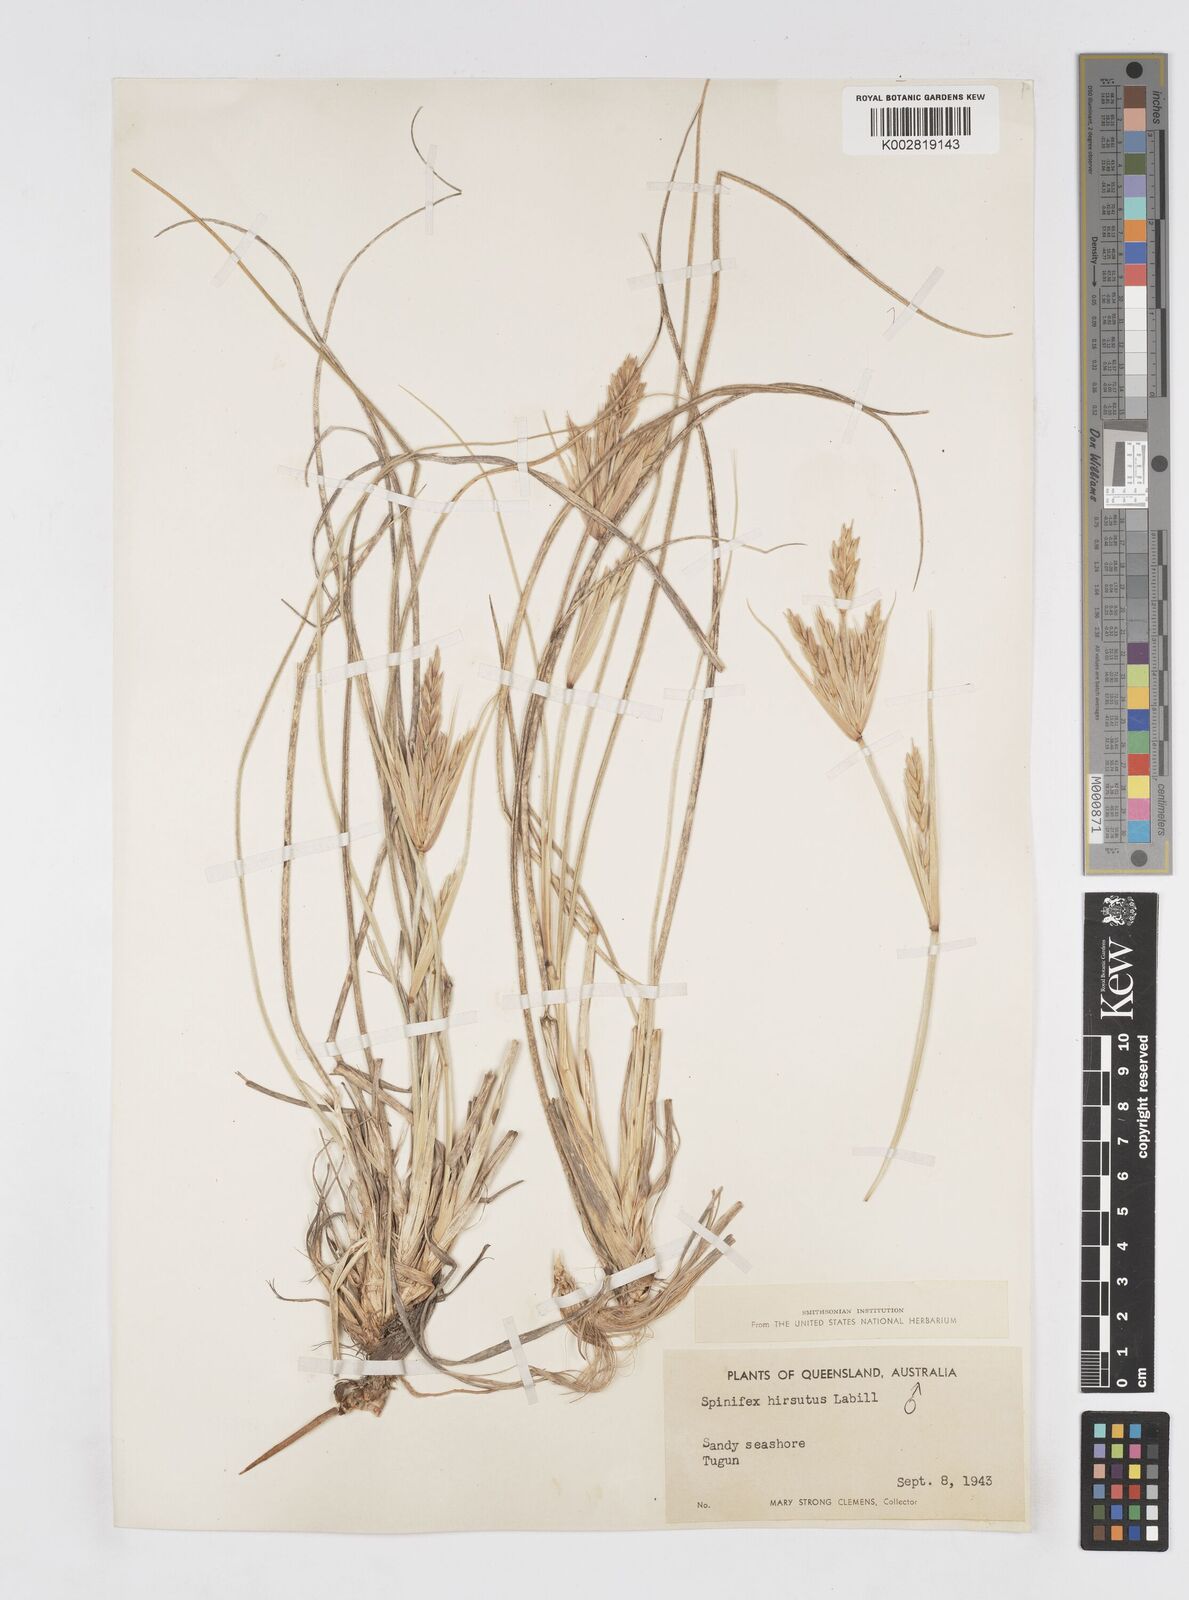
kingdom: Plantae
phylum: Tracheophyta
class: Liliopsida
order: Poales
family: Poaceae
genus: Spinifex
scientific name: Spinifex hirsutus
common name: Hairy spinifex
